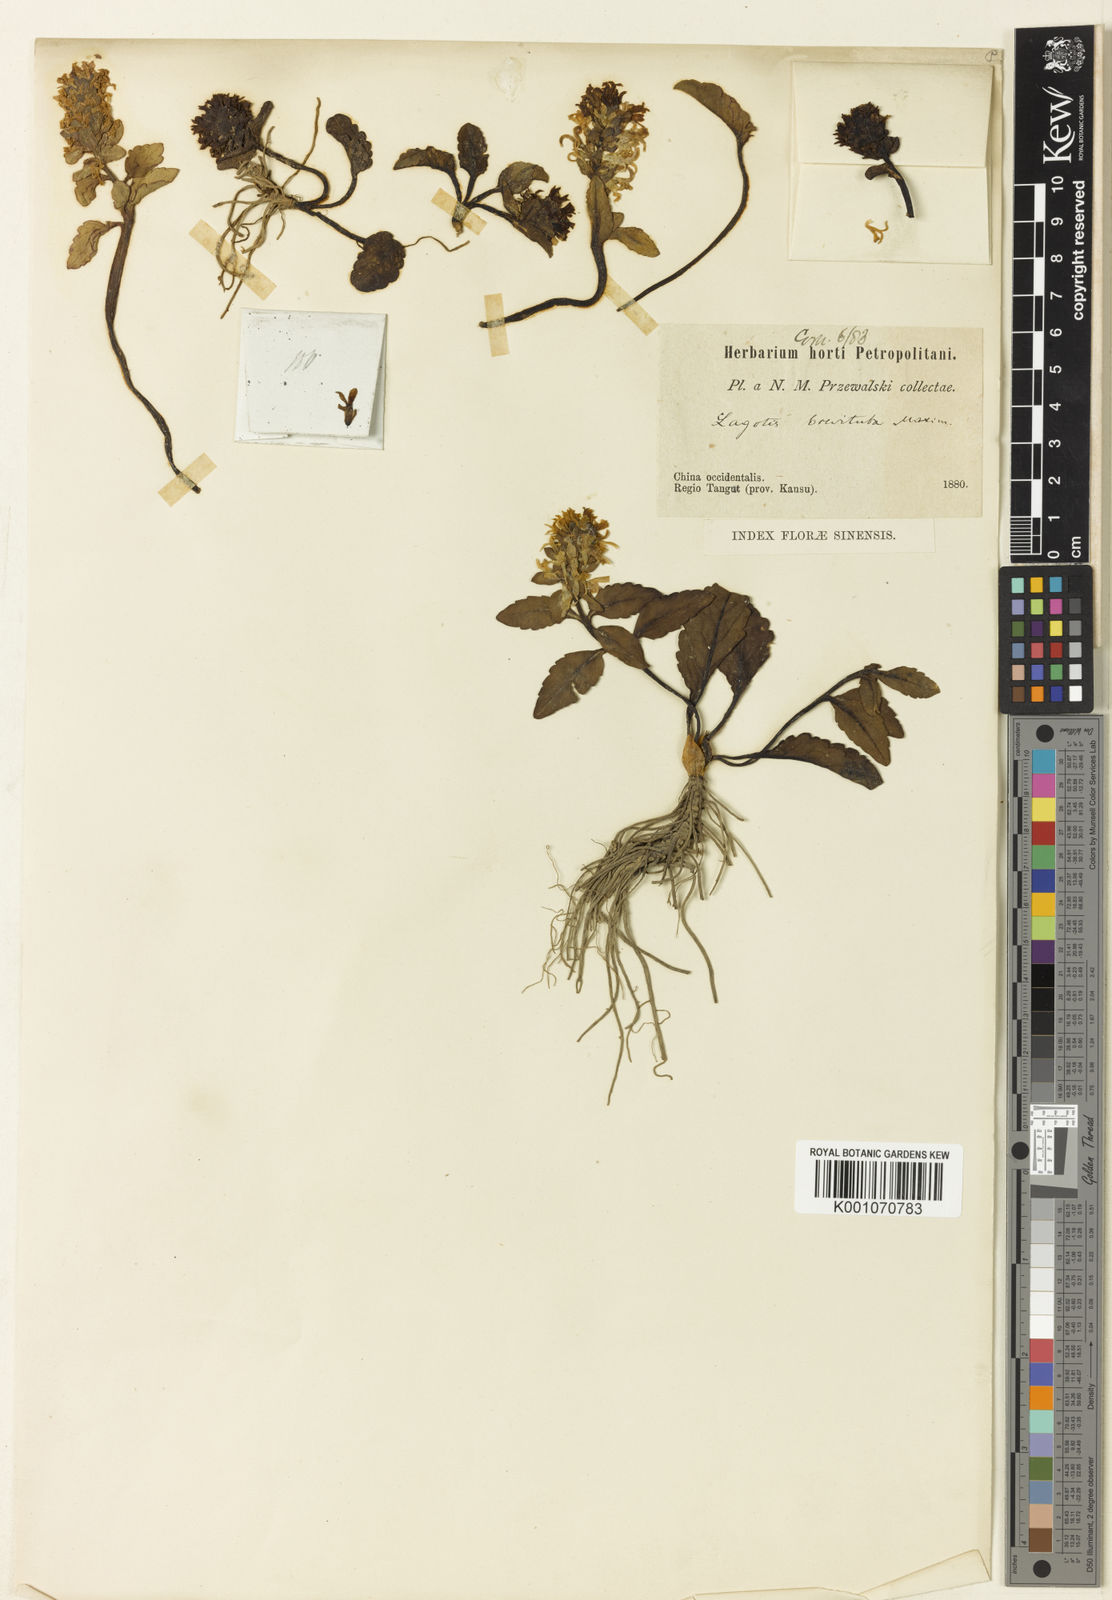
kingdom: Plantae
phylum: Tracheophyta
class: Magnoliopsida
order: Lamiales
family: Plantaginaceae
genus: Lagotis
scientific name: Lagotis brevituba
